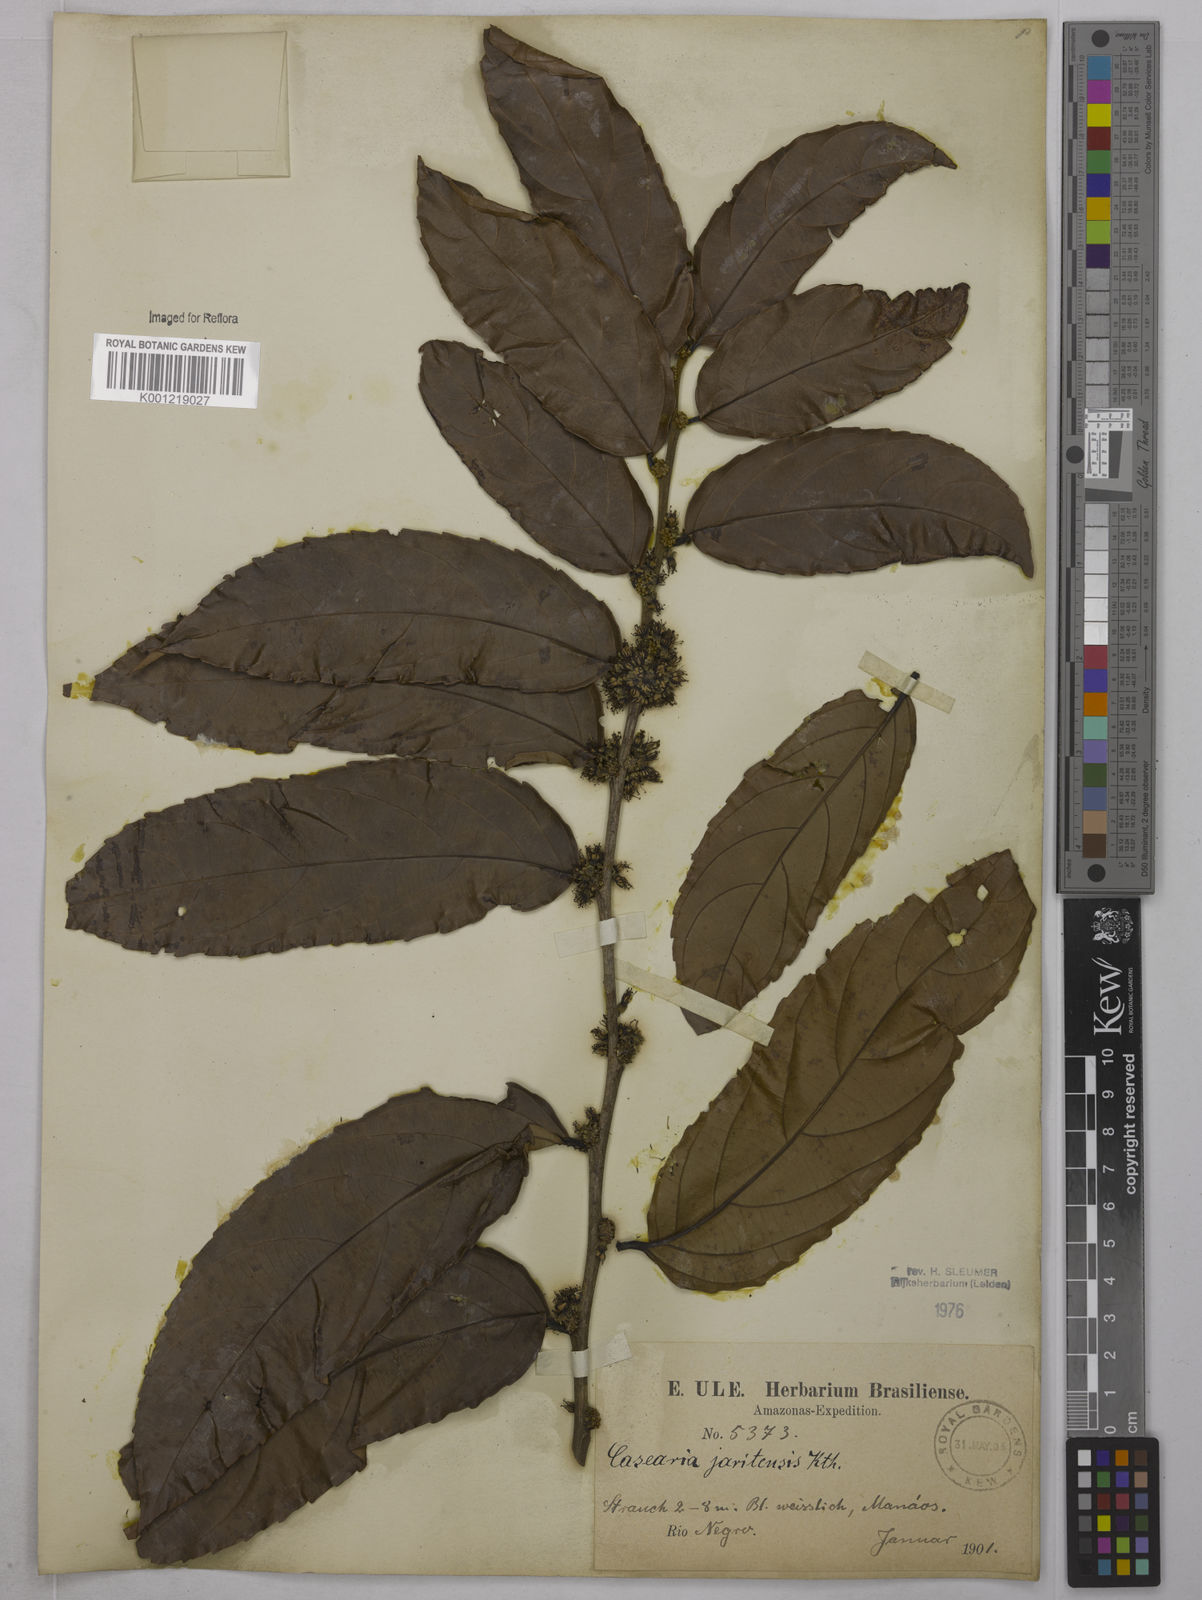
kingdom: Plantae
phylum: Tracheophyta
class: Magnoliopsida
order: Malpighiales
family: Salicaceae
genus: Piparea
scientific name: Piparea multiflora
